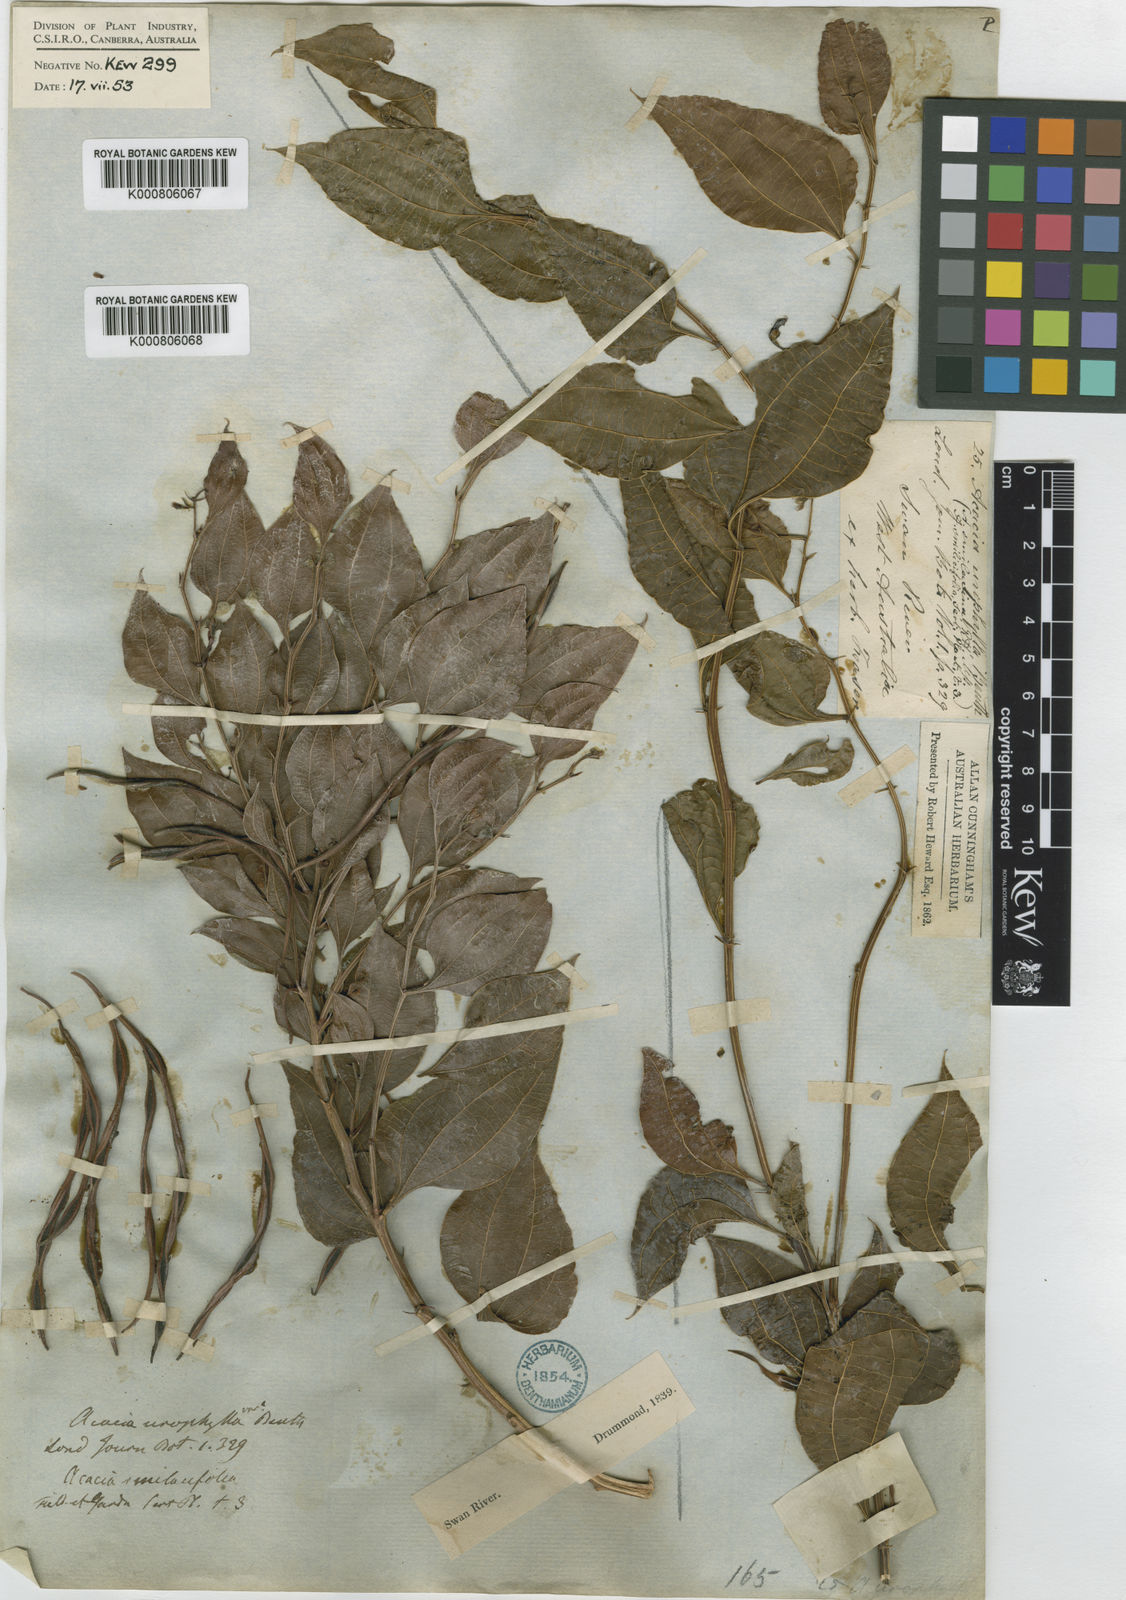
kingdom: Plantae
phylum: Tracheophyta
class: Magnoliopsida
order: Fabales
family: Fabaceae
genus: Acacia
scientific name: Acacia urophylla
